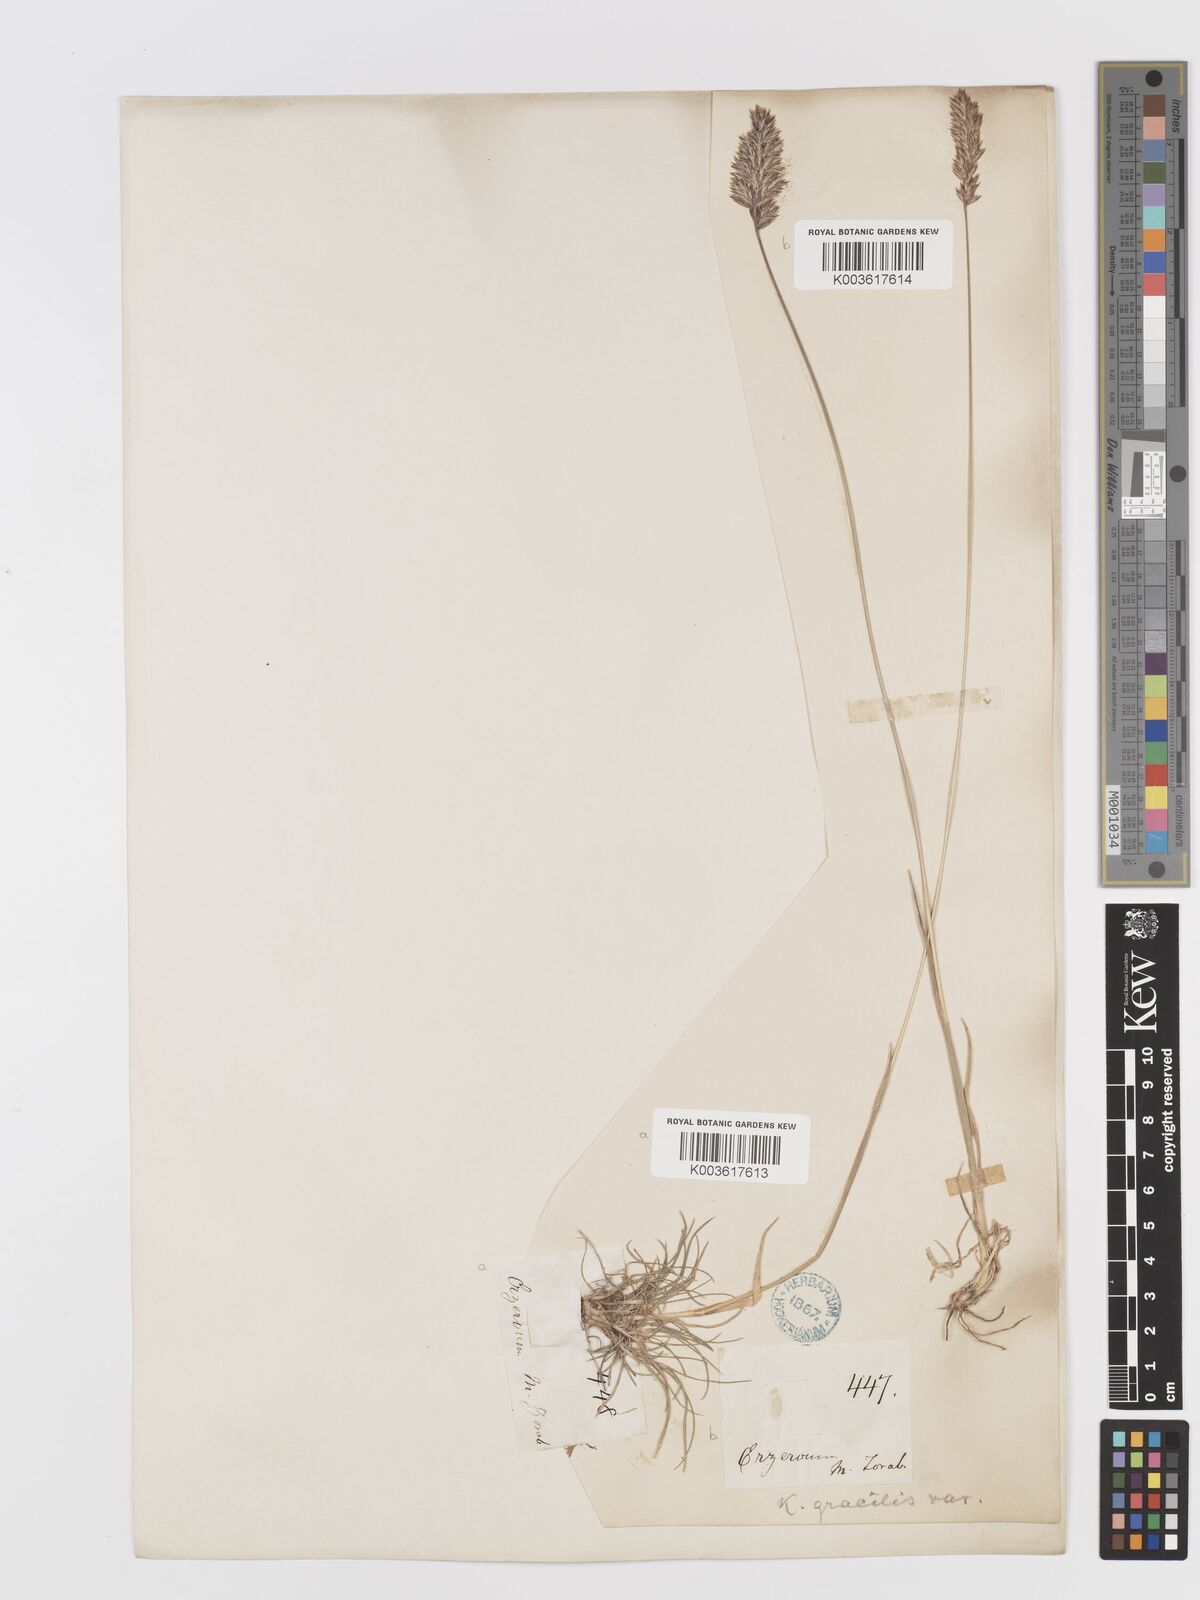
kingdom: Plantae
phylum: Tracheophyta
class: Liliopsida
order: Poales
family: Poaceae
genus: Koeleria
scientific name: Koeleria macrantha
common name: Crested hair-grass
